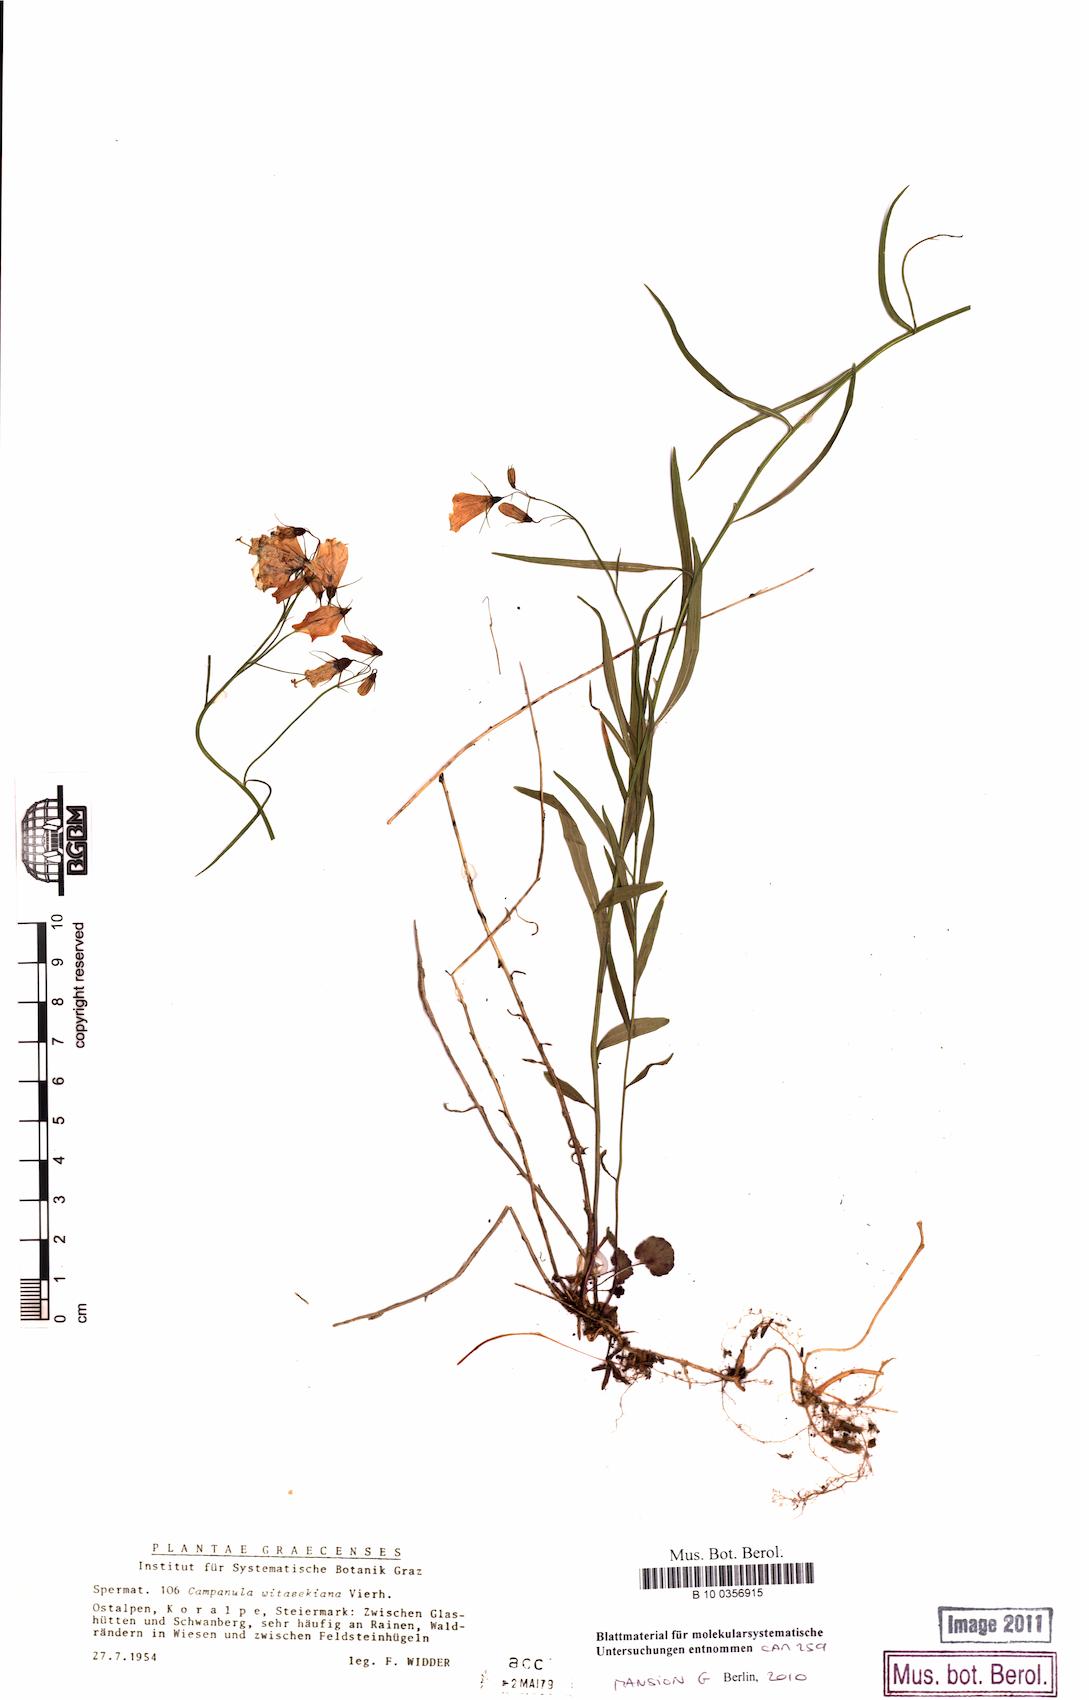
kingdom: Plantae
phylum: Tracheophyta
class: Magnoliopsida
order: Asterales
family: Campanulaceae
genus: Campanula
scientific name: Campanula witasekiana
